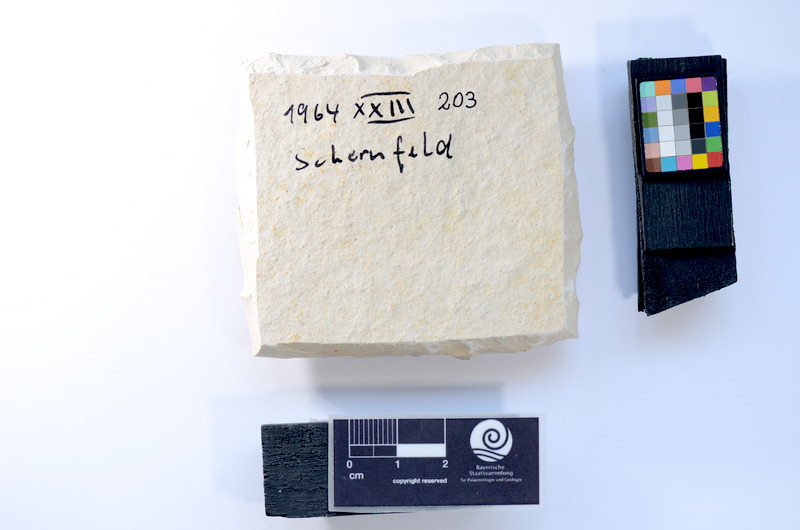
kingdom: Animalia
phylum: Chordata
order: Salmoniformes
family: Orthogonikleithridae
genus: Leptolepides
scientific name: Leptolepides
